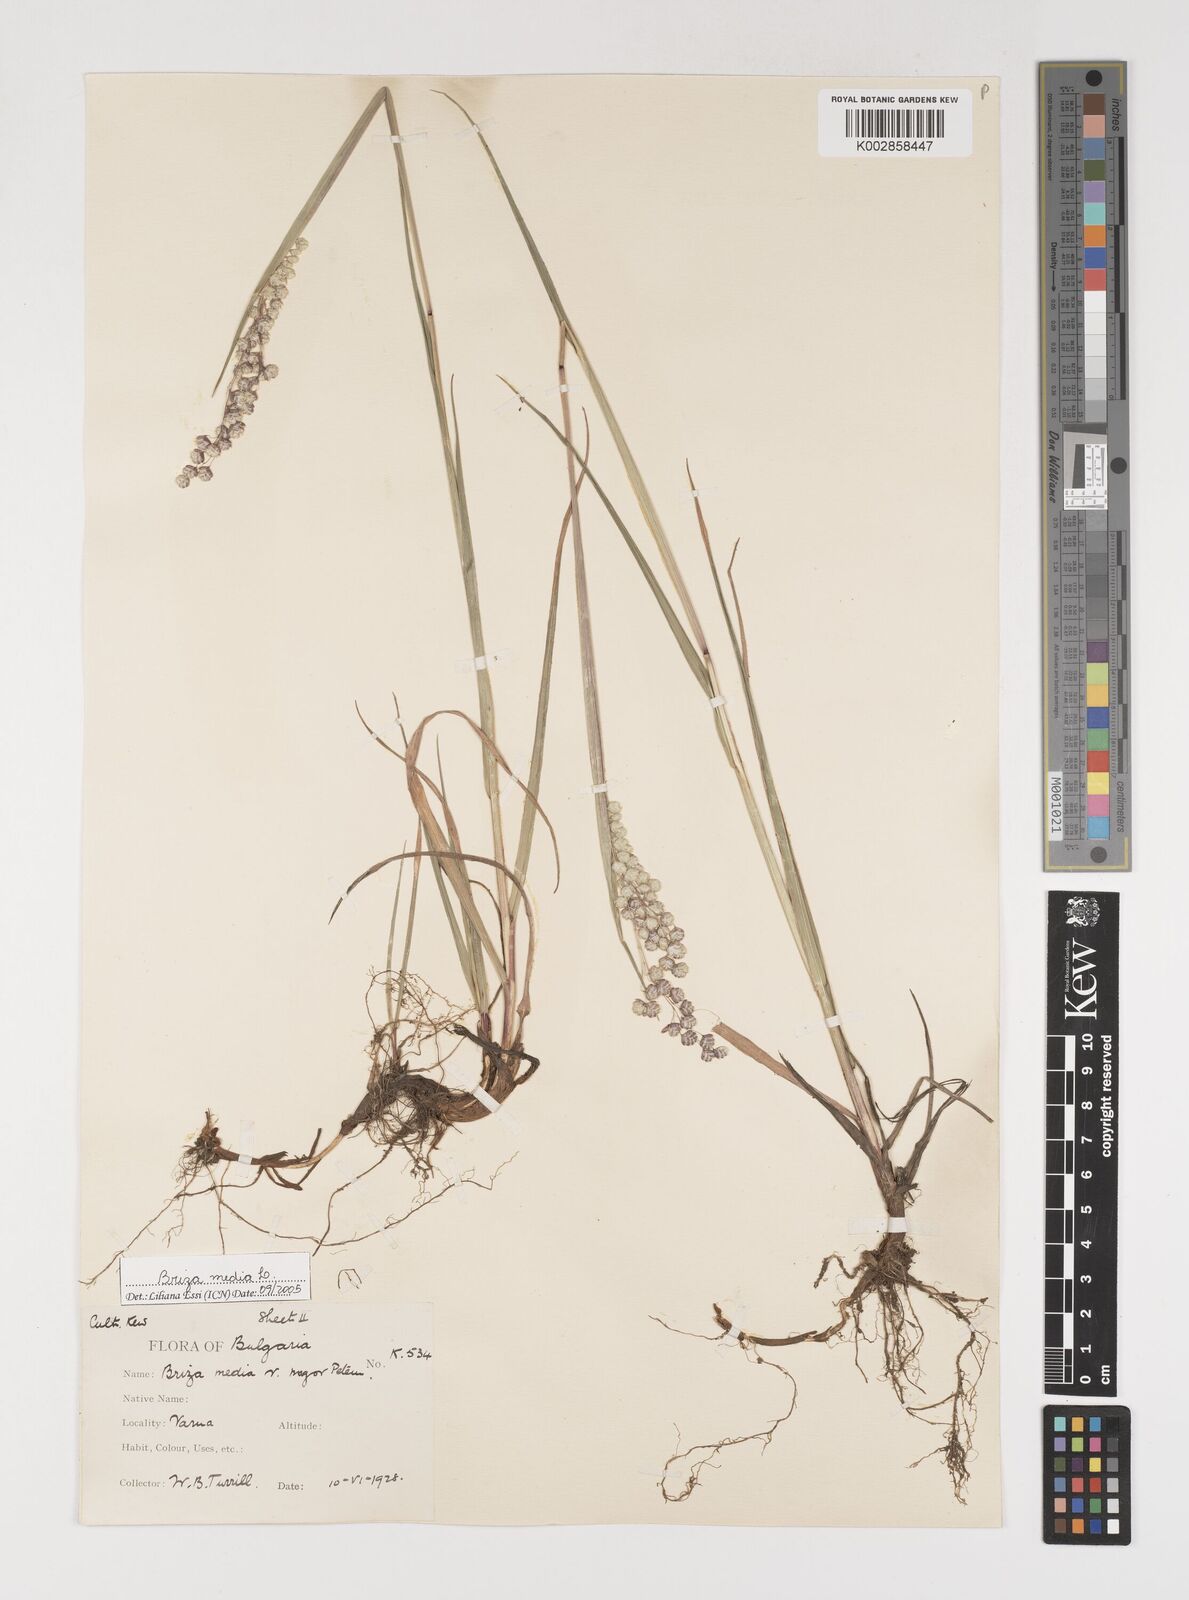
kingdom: Plantae
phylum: Tracheophyta
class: Liliopsida
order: Poales
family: Poaceae
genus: Briza
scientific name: Briza media
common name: Quaking grass
